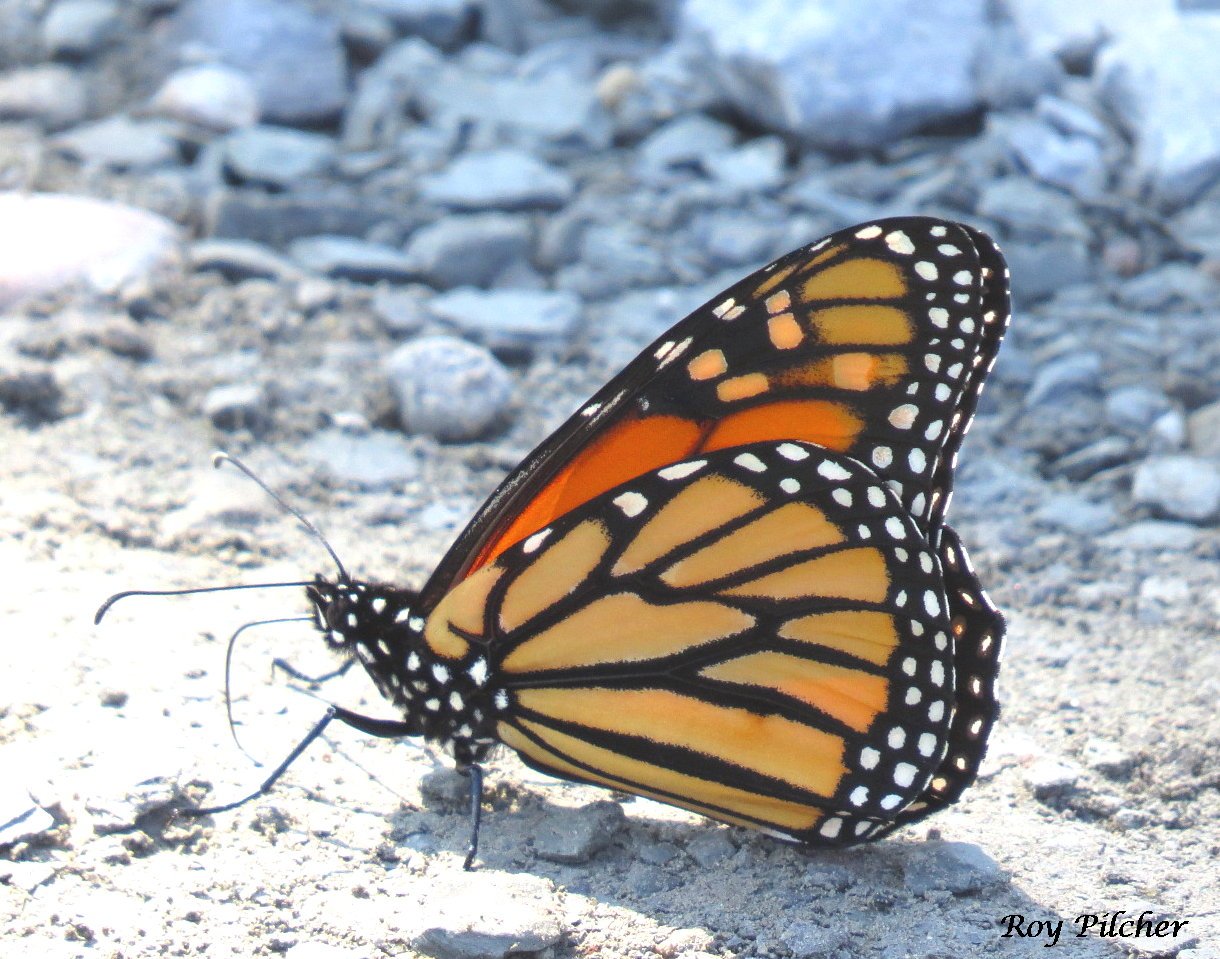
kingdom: Animalia
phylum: Arthropoda
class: Insecta
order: Lepidoptera
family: Nymphalidae
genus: Danaus
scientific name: Danaus plexippus
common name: Monarch
